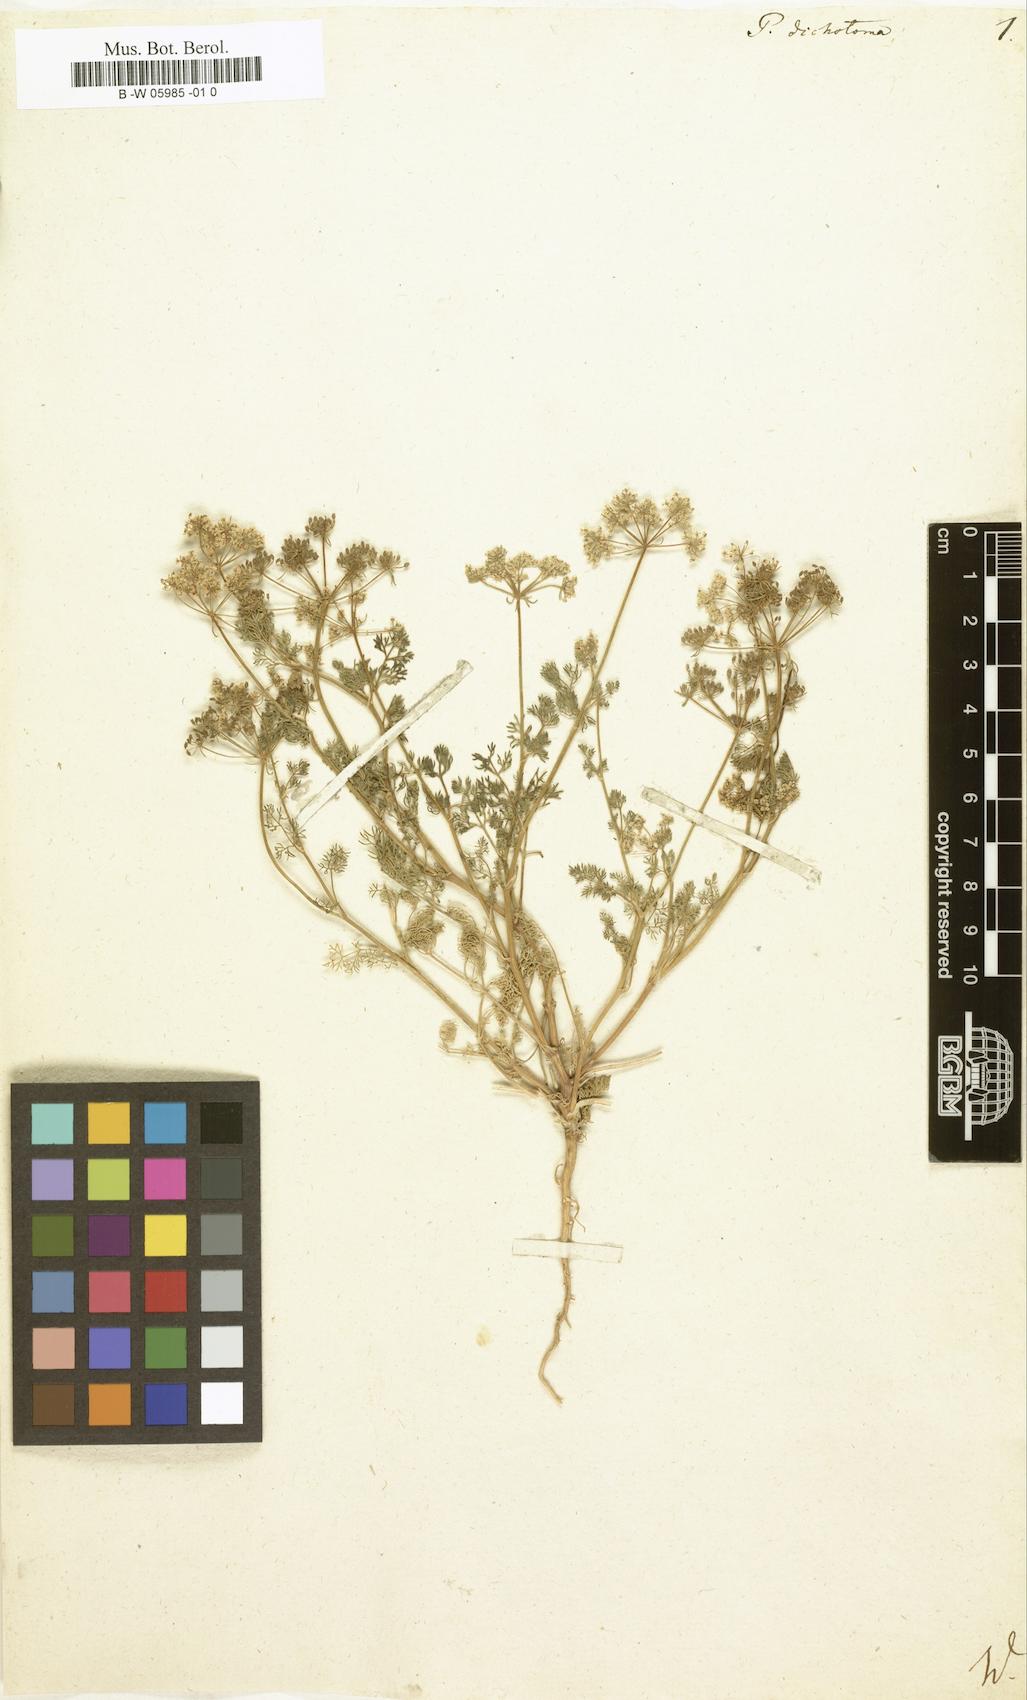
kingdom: Plantae
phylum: Tracheophyta
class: Magnoliopsida
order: Apiales
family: Apiaceae
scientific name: Apiaceae
